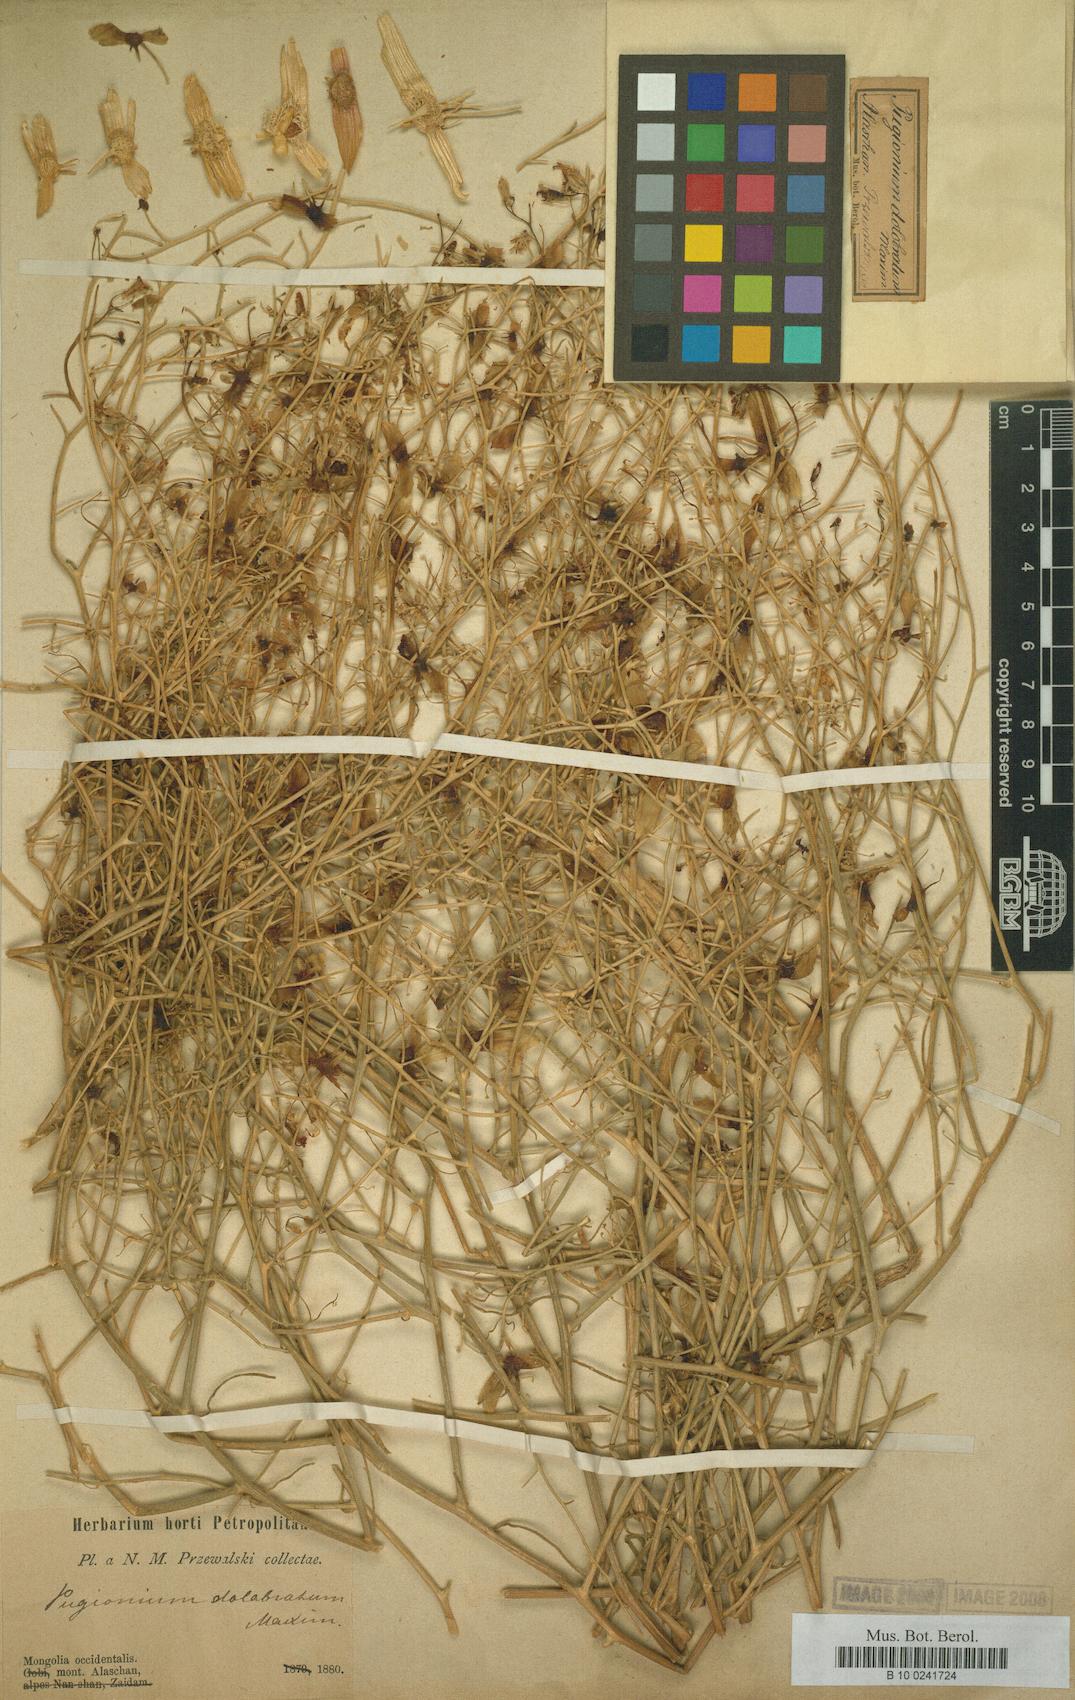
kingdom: Plantae
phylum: Tracheophyta
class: Magnoliopsida
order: Brassicales
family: Brassicaceae
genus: Pugionium
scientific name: Pugionium dolabratum
